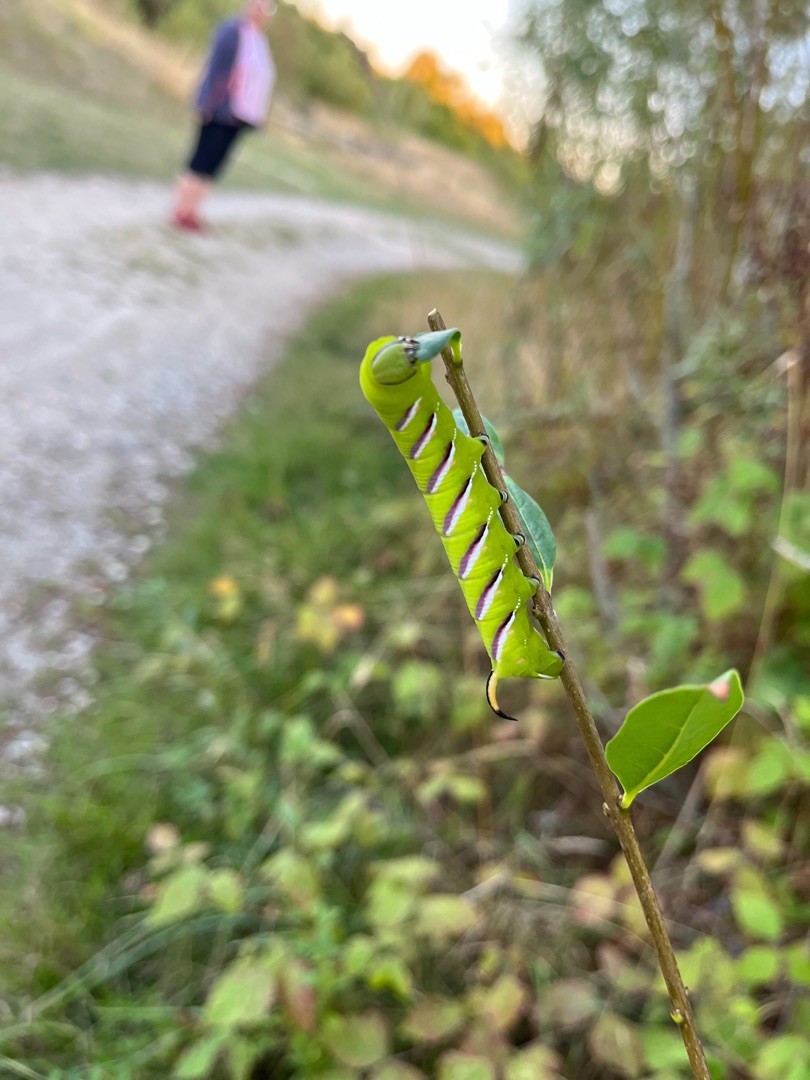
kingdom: Animalia
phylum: Arthropoda
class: Insecta
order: Lepidoptera
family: Sphingidae
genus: Sphinx
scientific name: Sphinx ligustri
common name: Ligustersværmer
